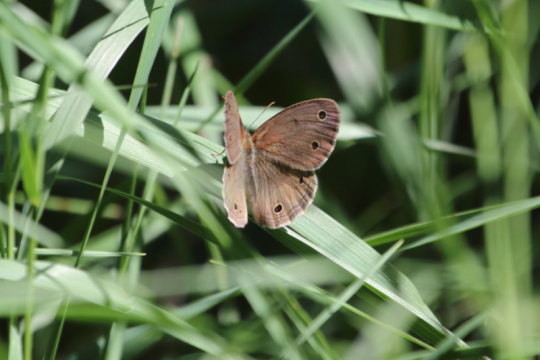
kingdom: Animalia
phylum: Arthropoda
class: Insecta
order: Lepidoptera
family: Nymphalidae
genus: Euptychia
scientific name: Euptychia cymela
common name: Little Wood Satyr
